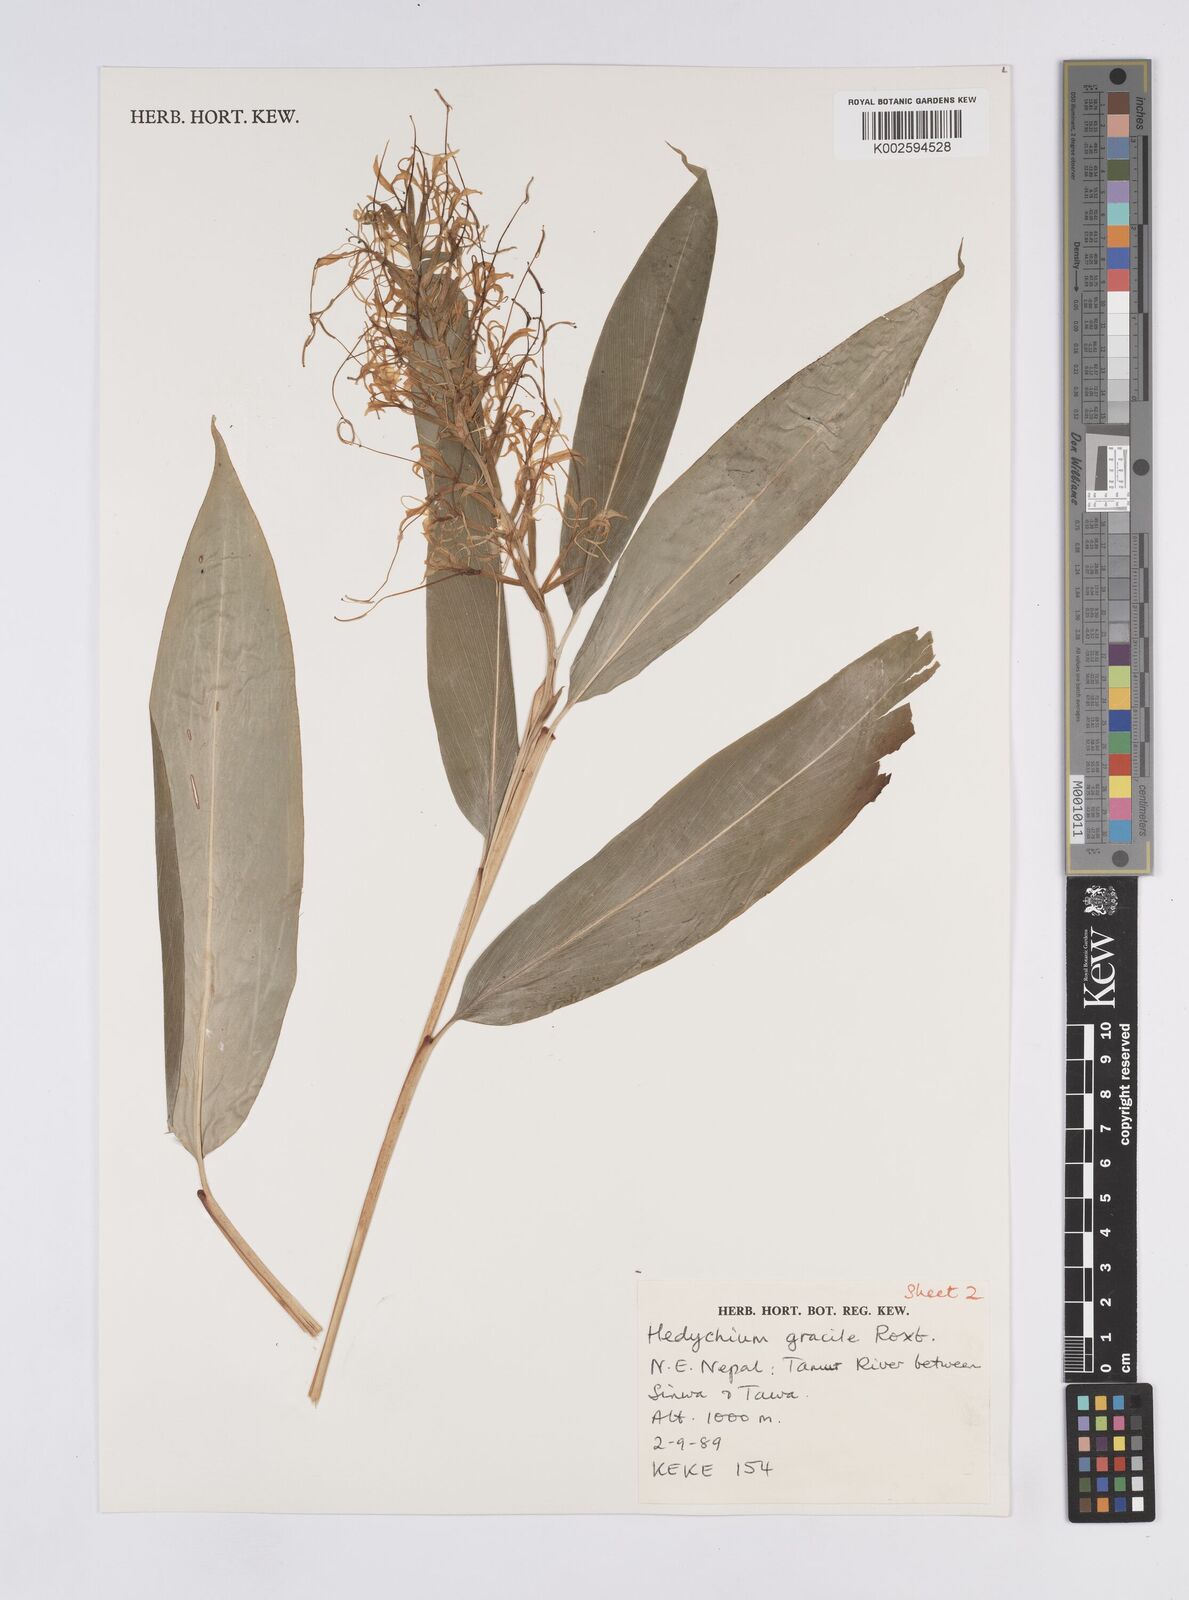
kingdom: Plantae
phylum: Tracheophyta
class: Liliopsida
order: Zingiberales
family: Zingiberaceae
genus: Hedychium
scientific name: Hedychium gracile
